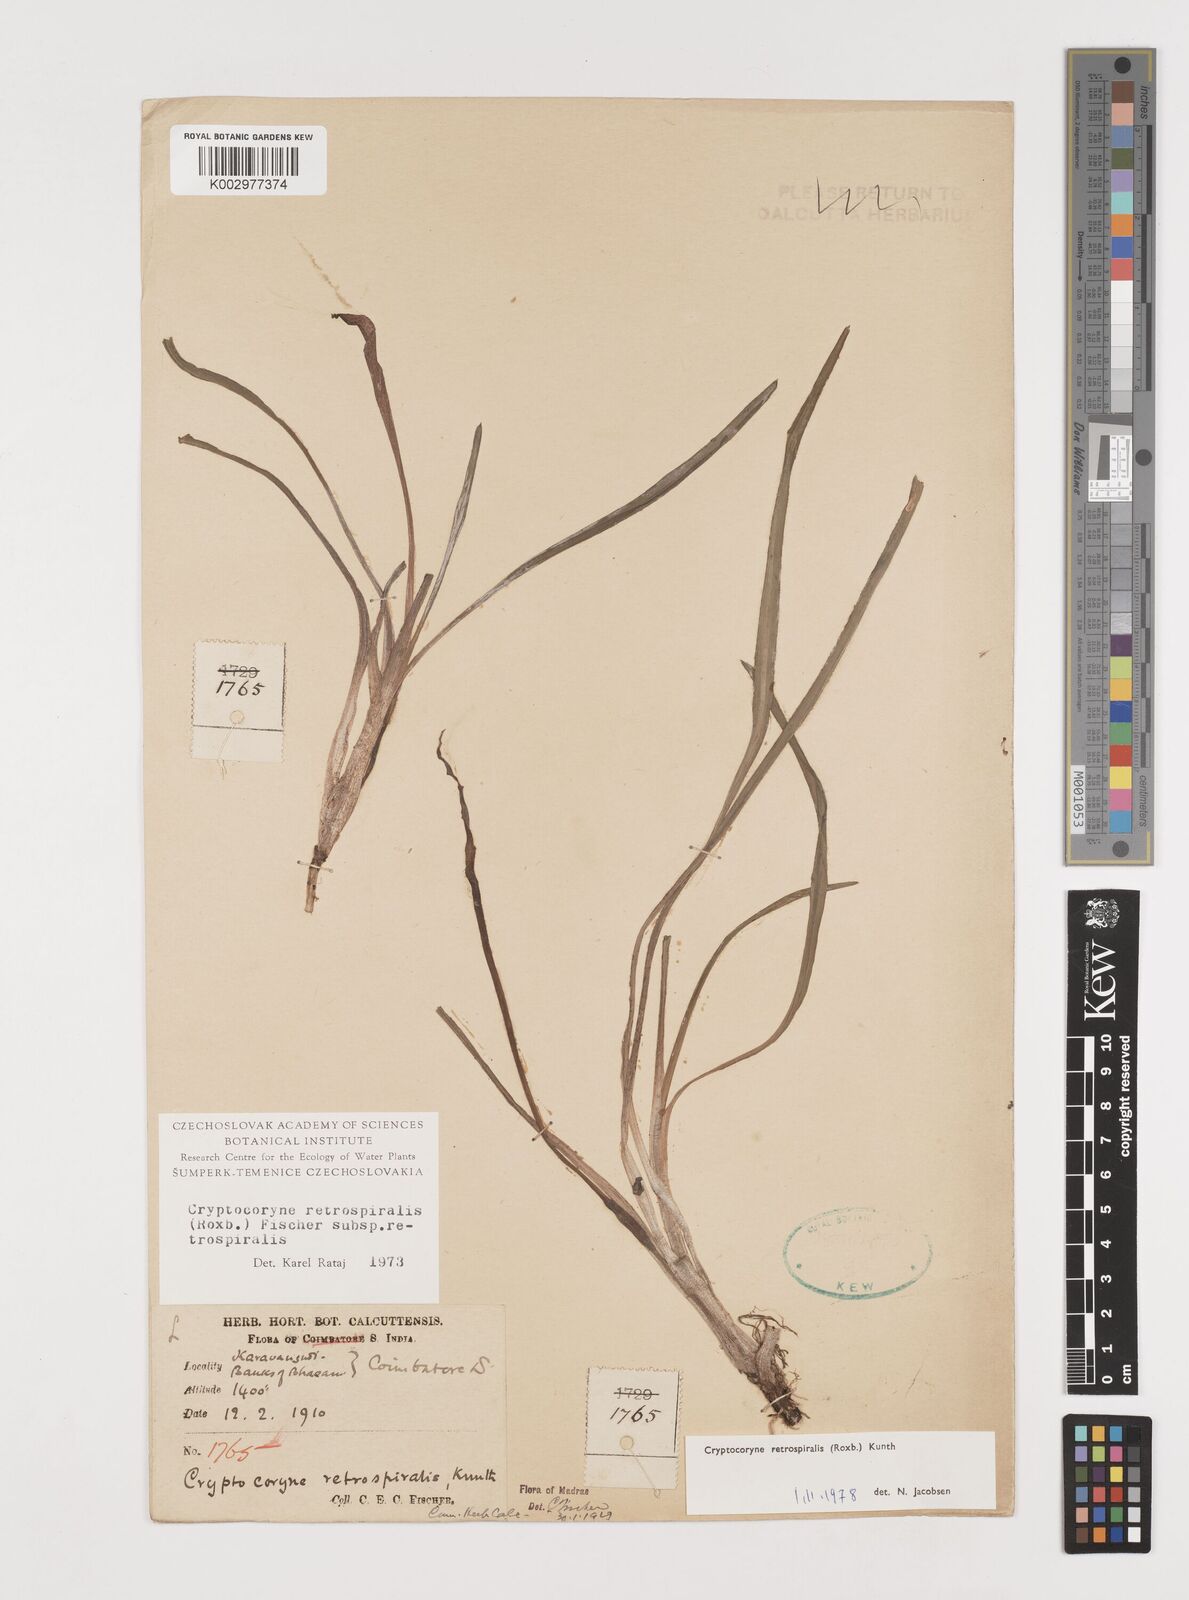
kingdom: Plantae
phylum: Tracheophyta
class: Liliopsida
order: Alismatales
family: Araceae
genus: Cryptocoryne
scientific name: Cryptocoryne retrospiralis
